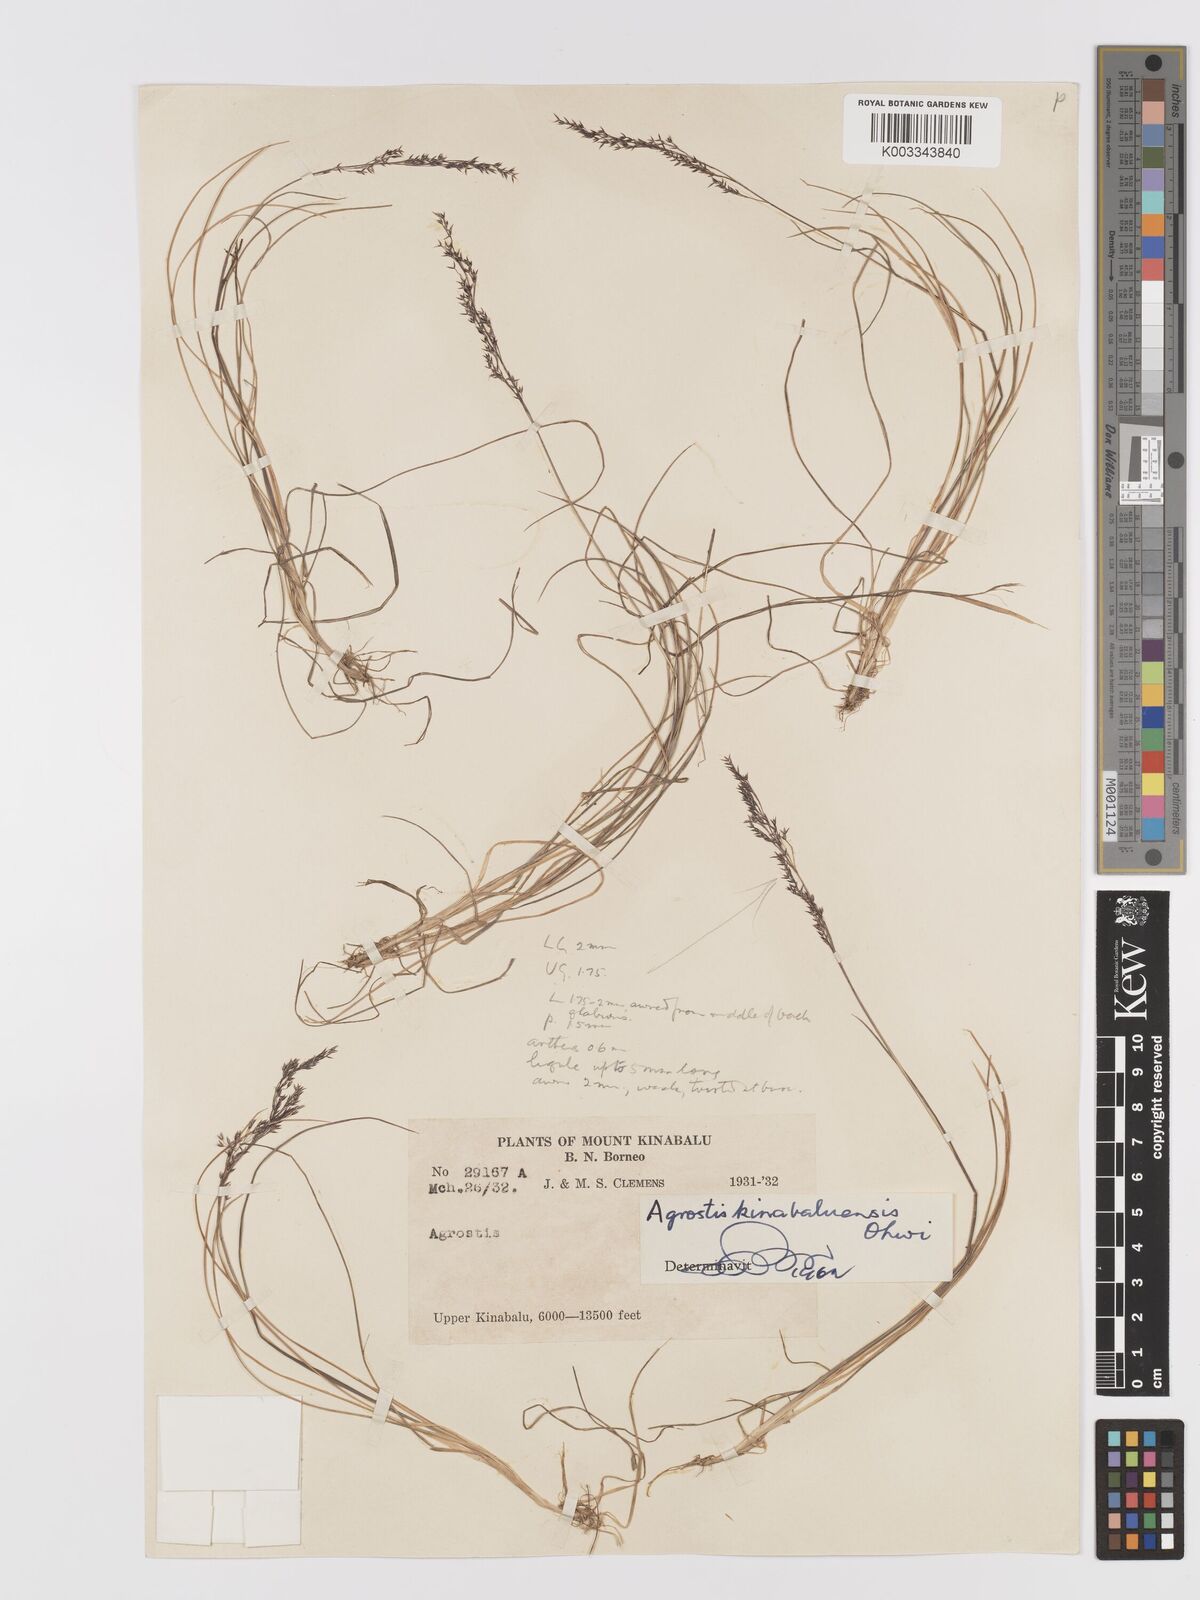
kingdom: Plantae
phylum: Tracheophyta
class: Liliopsida
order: Poales
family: Poaceae
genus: Agrostis
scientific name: Agrostis infirma
